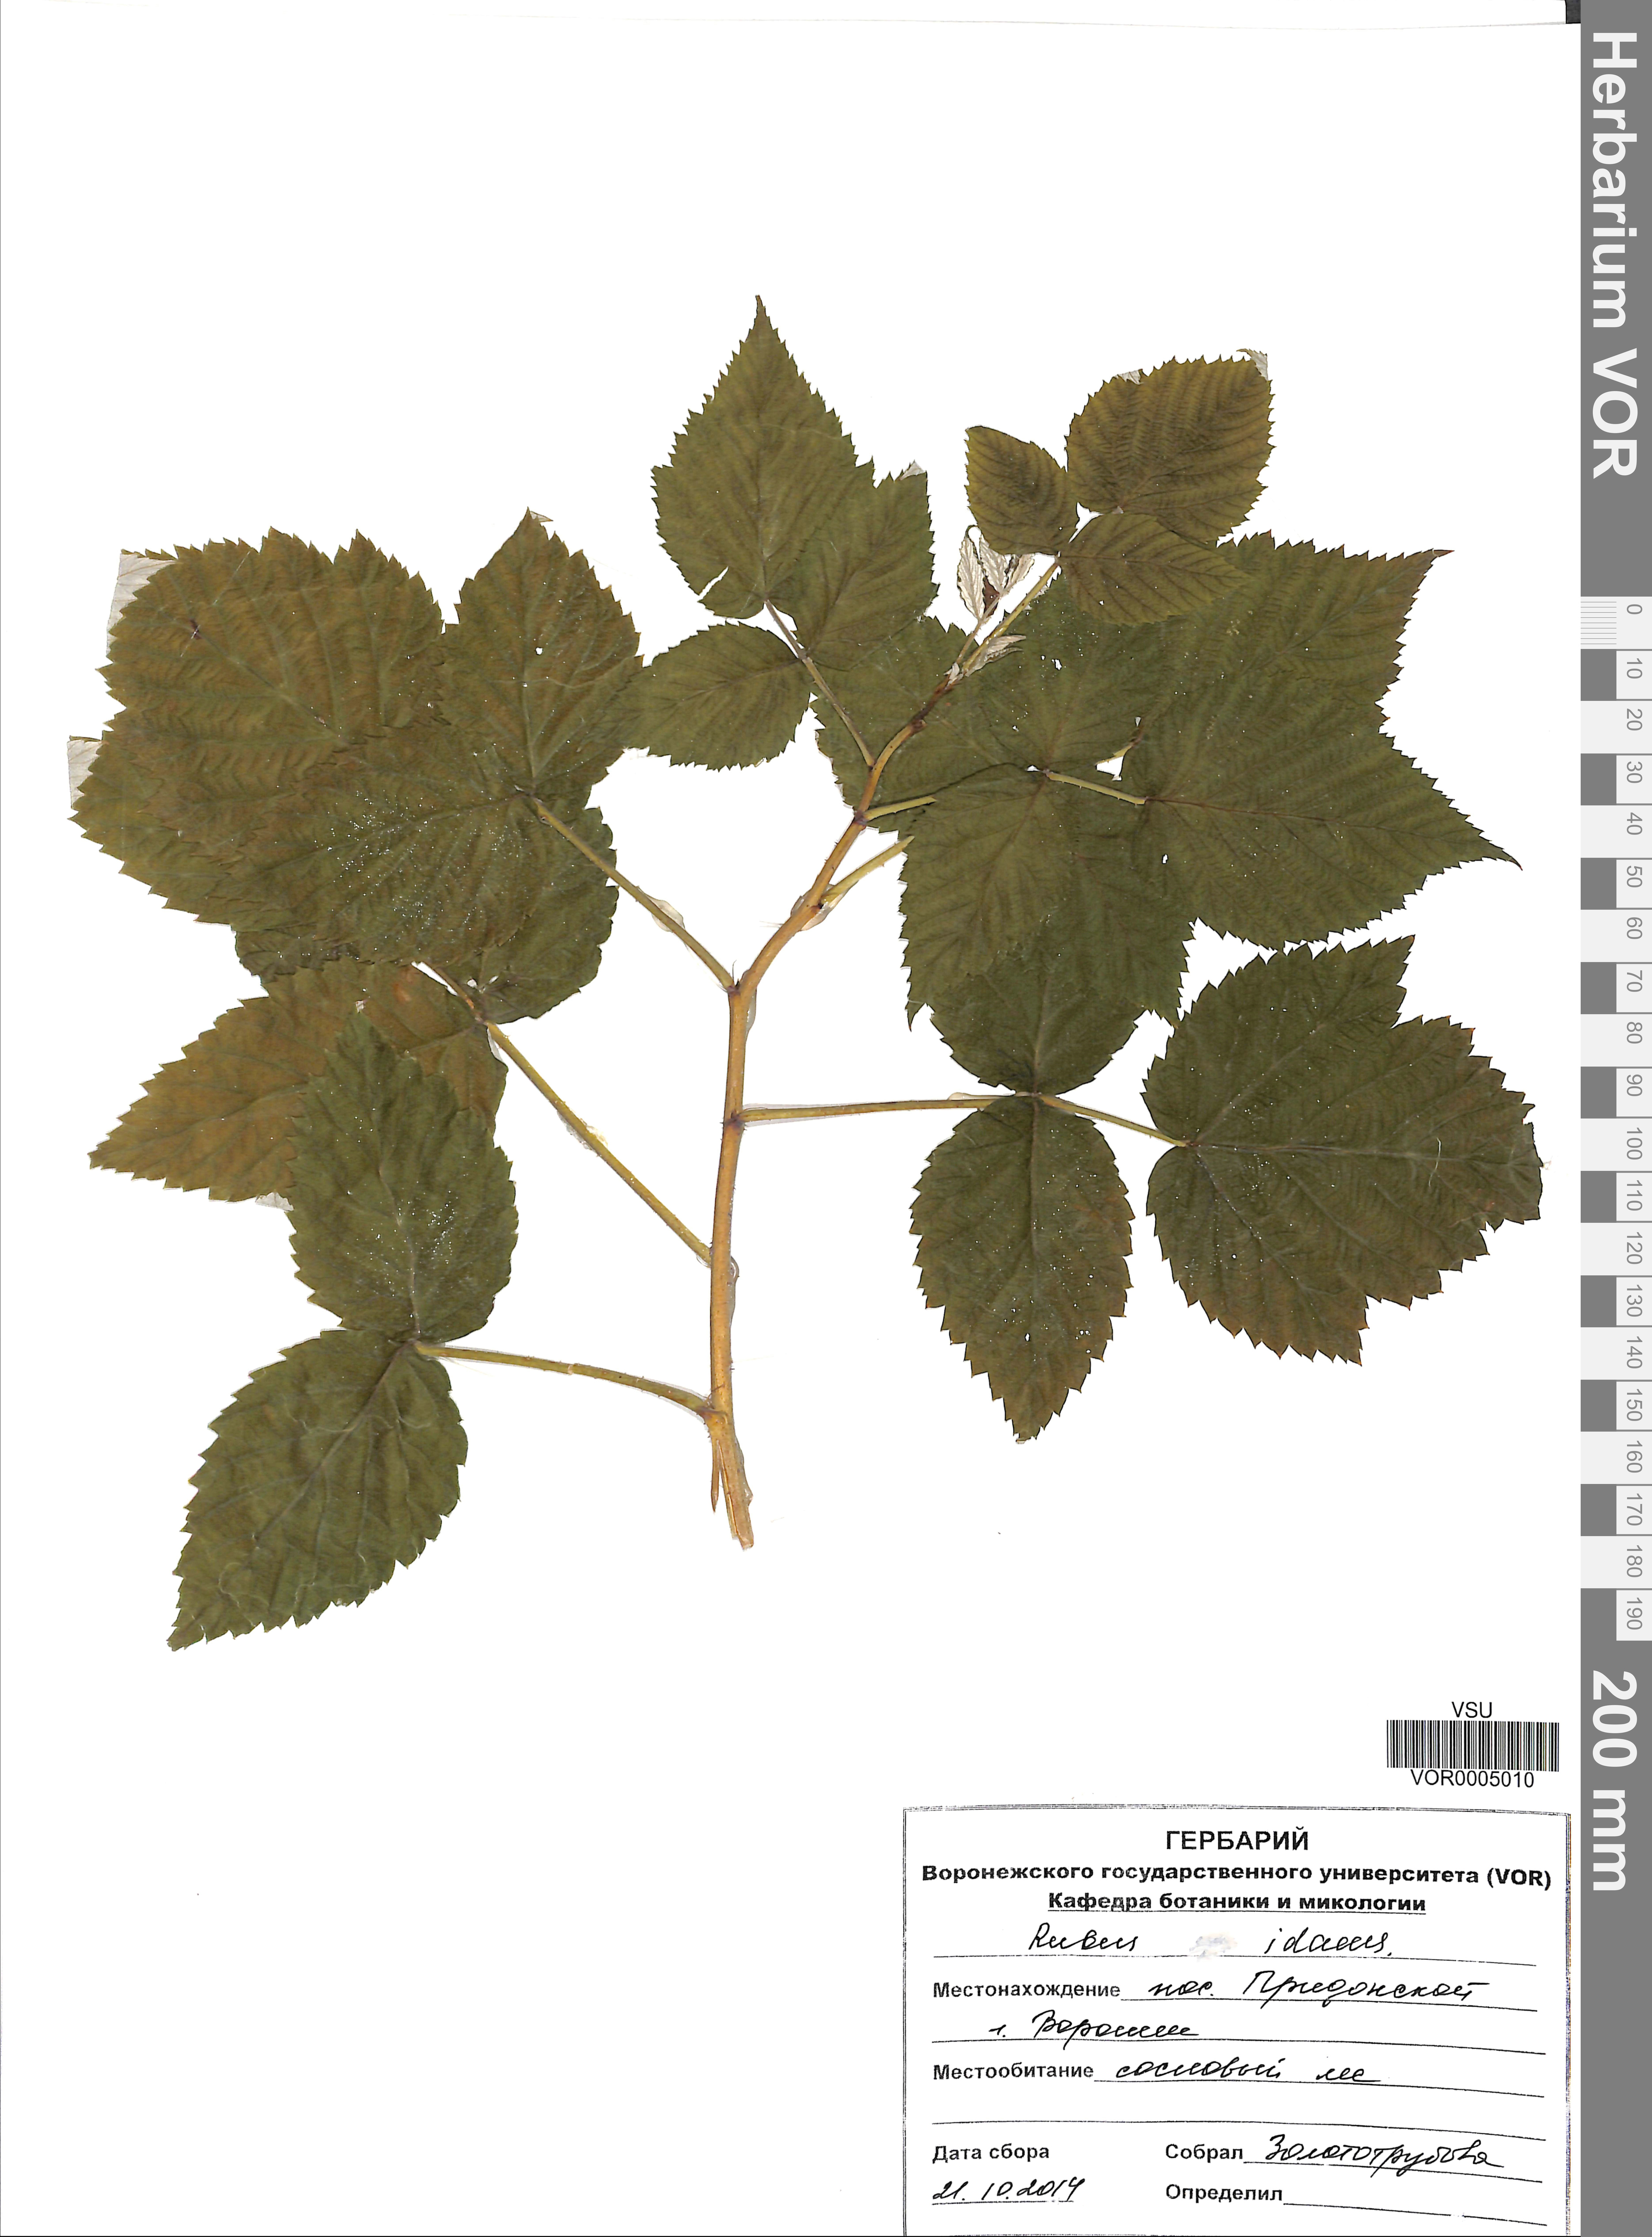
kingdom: Plantae
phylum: Tracheophyta
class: Magnoliopsida
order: Rosales
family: Rosaceae
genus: Rubus
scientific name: Rubus idaeus
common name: Raspberry
